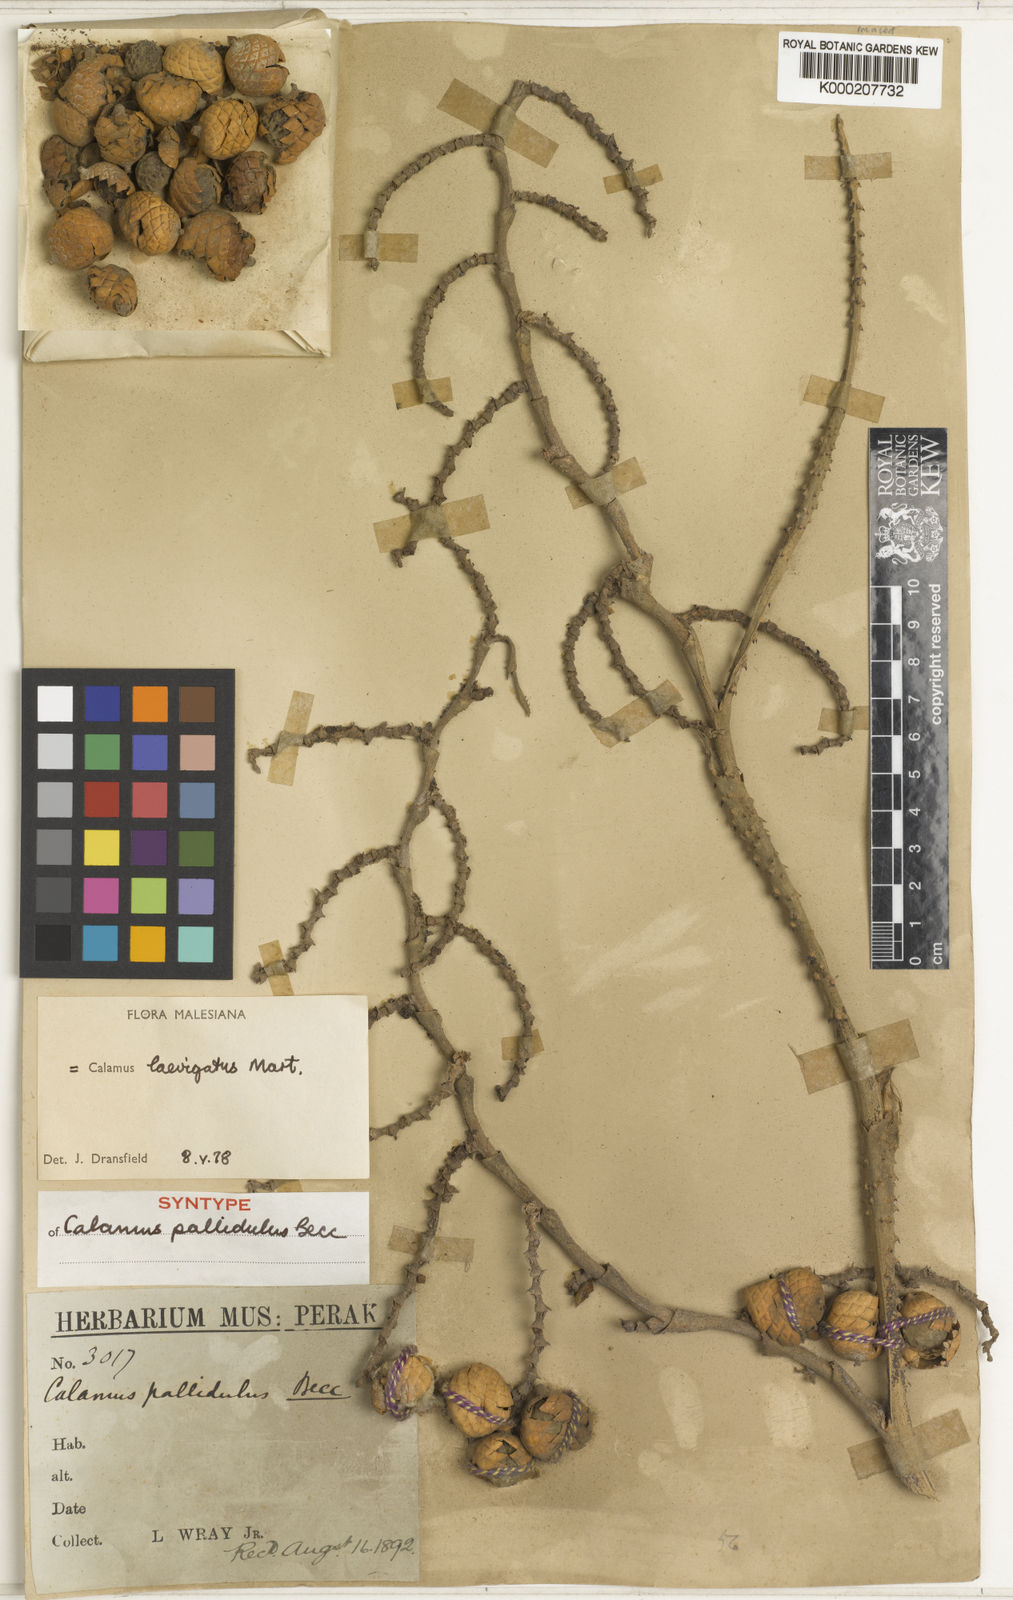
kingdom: Plantae
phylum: Tracheophyta
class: Liliopsida
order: Arecales
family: Arecaceae
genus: Calamus
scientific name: Calamus
